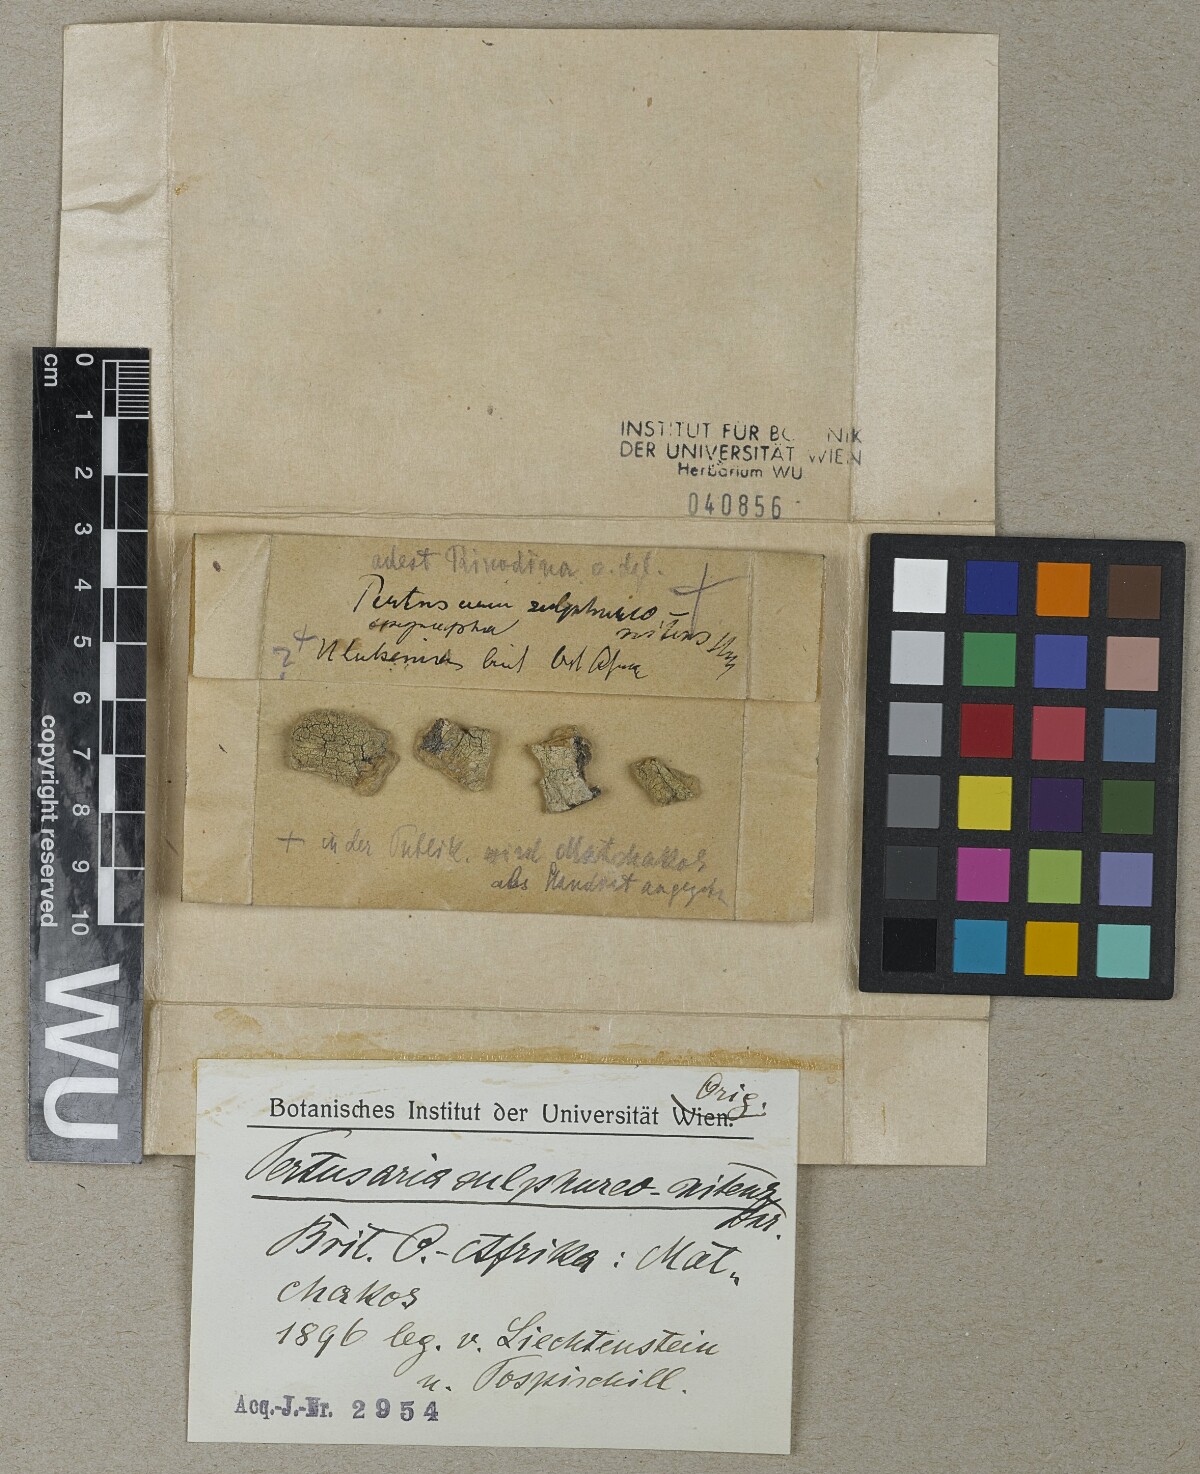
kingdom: Fungi
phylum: Ascomycota
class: Lecanoromycetes
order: Pertusariales
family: Pertusariaceae
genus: Pertusaria
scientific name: Pertusaria
